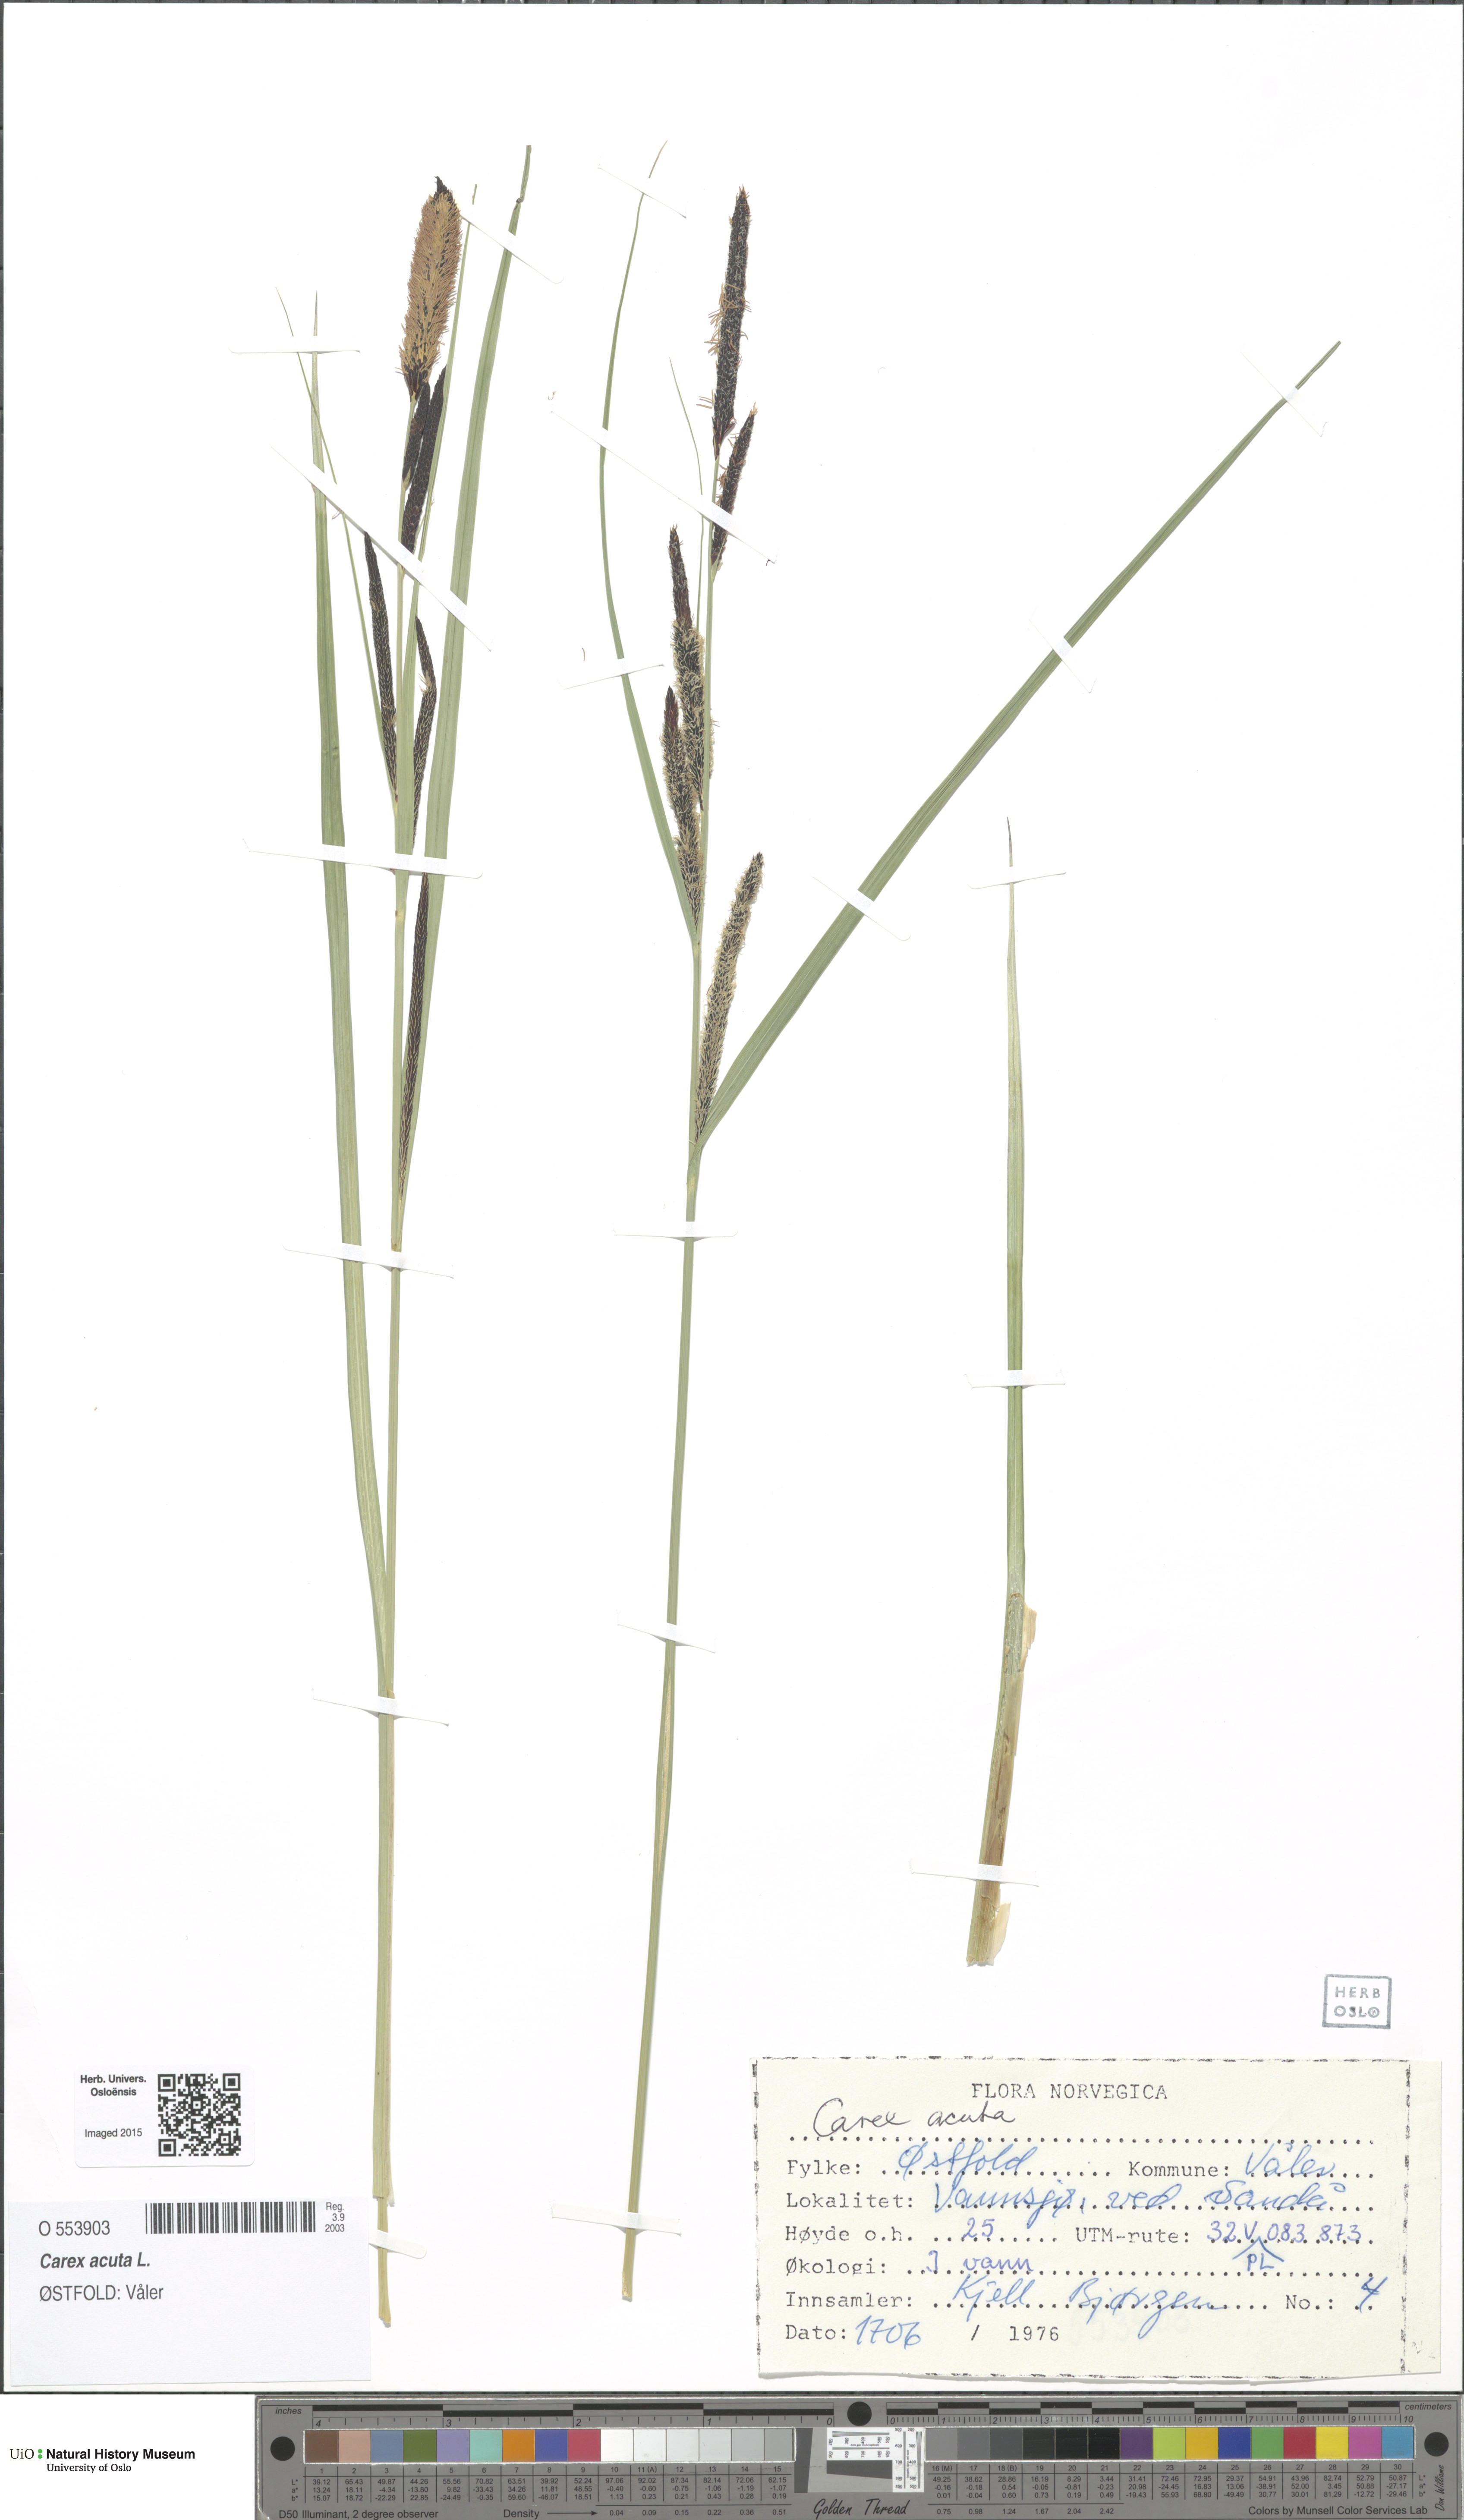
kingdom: Plantae
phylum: Tracheophyta
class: Liliopsida
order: Poales
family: Cyperaceae
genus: Carex
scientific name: Carex acuta
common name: Slender tufted-sedge
